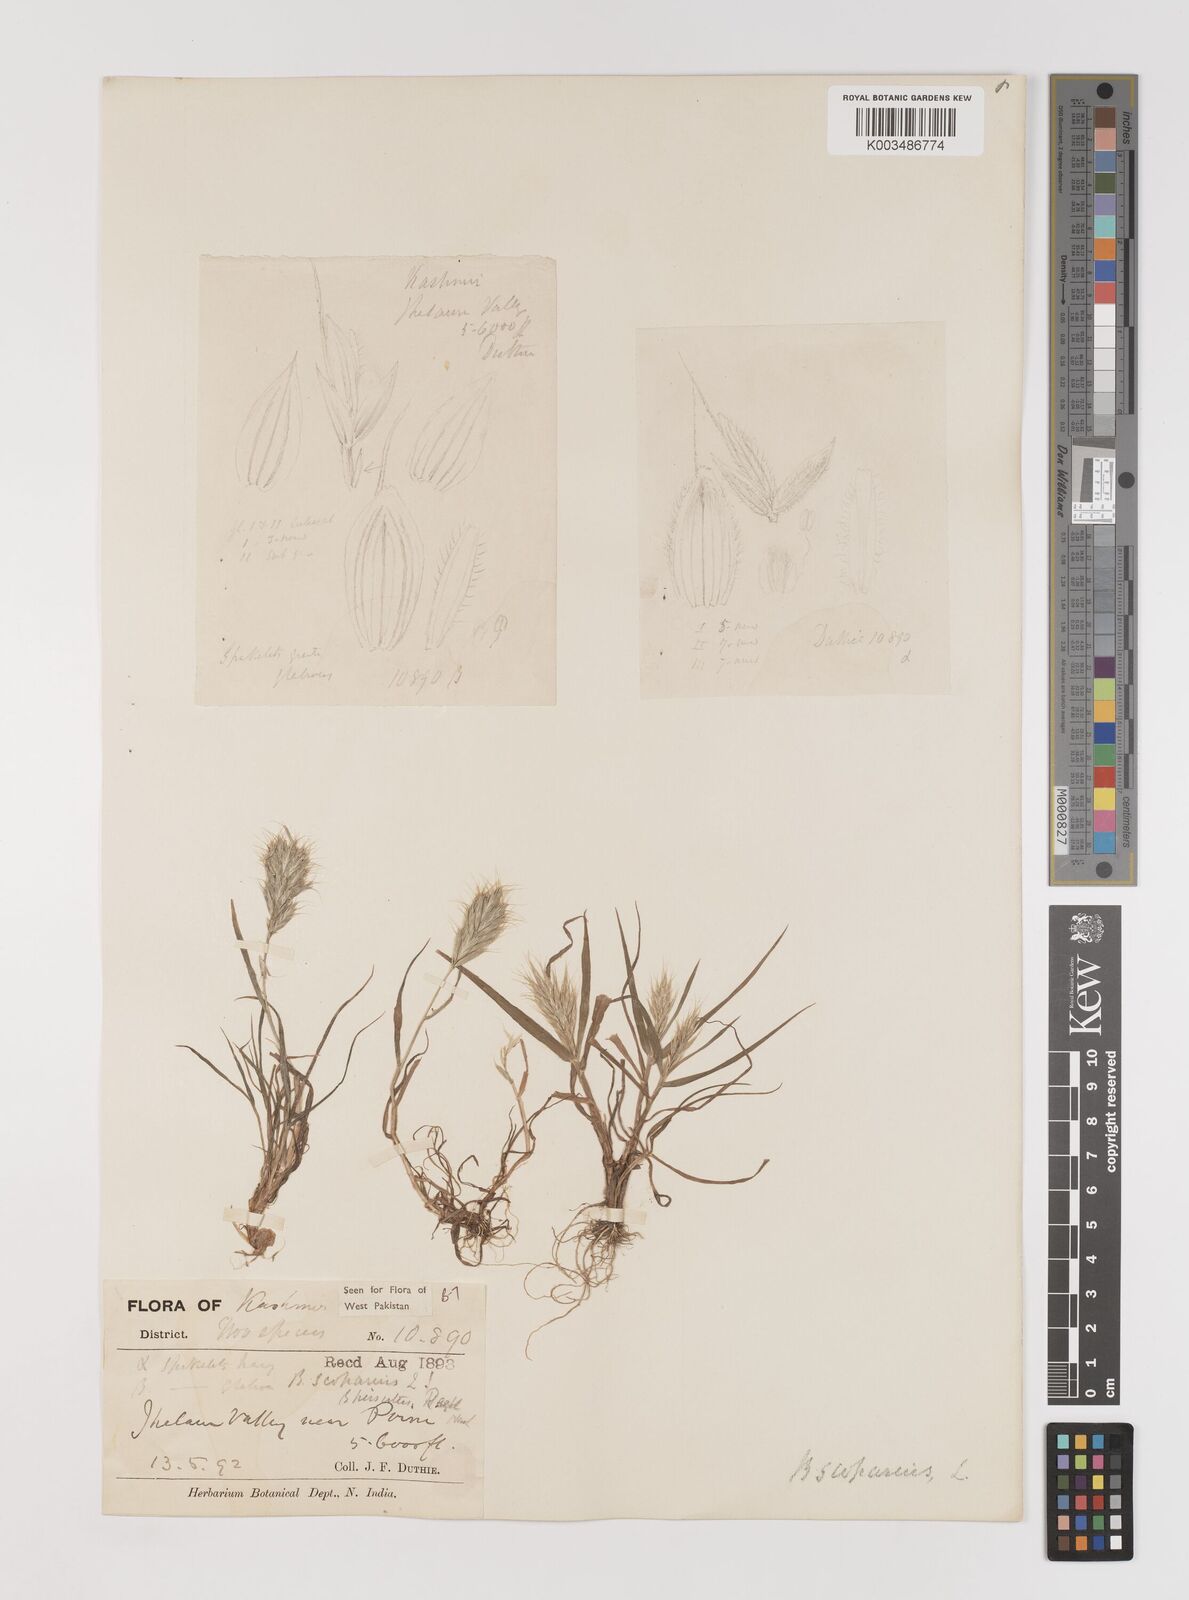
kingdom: Plantae
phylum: Tracheophyta
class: Liliopsida
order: Poales
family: Poaceae
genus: Bromus
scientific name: Bromus scoparius
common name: Broom brome
